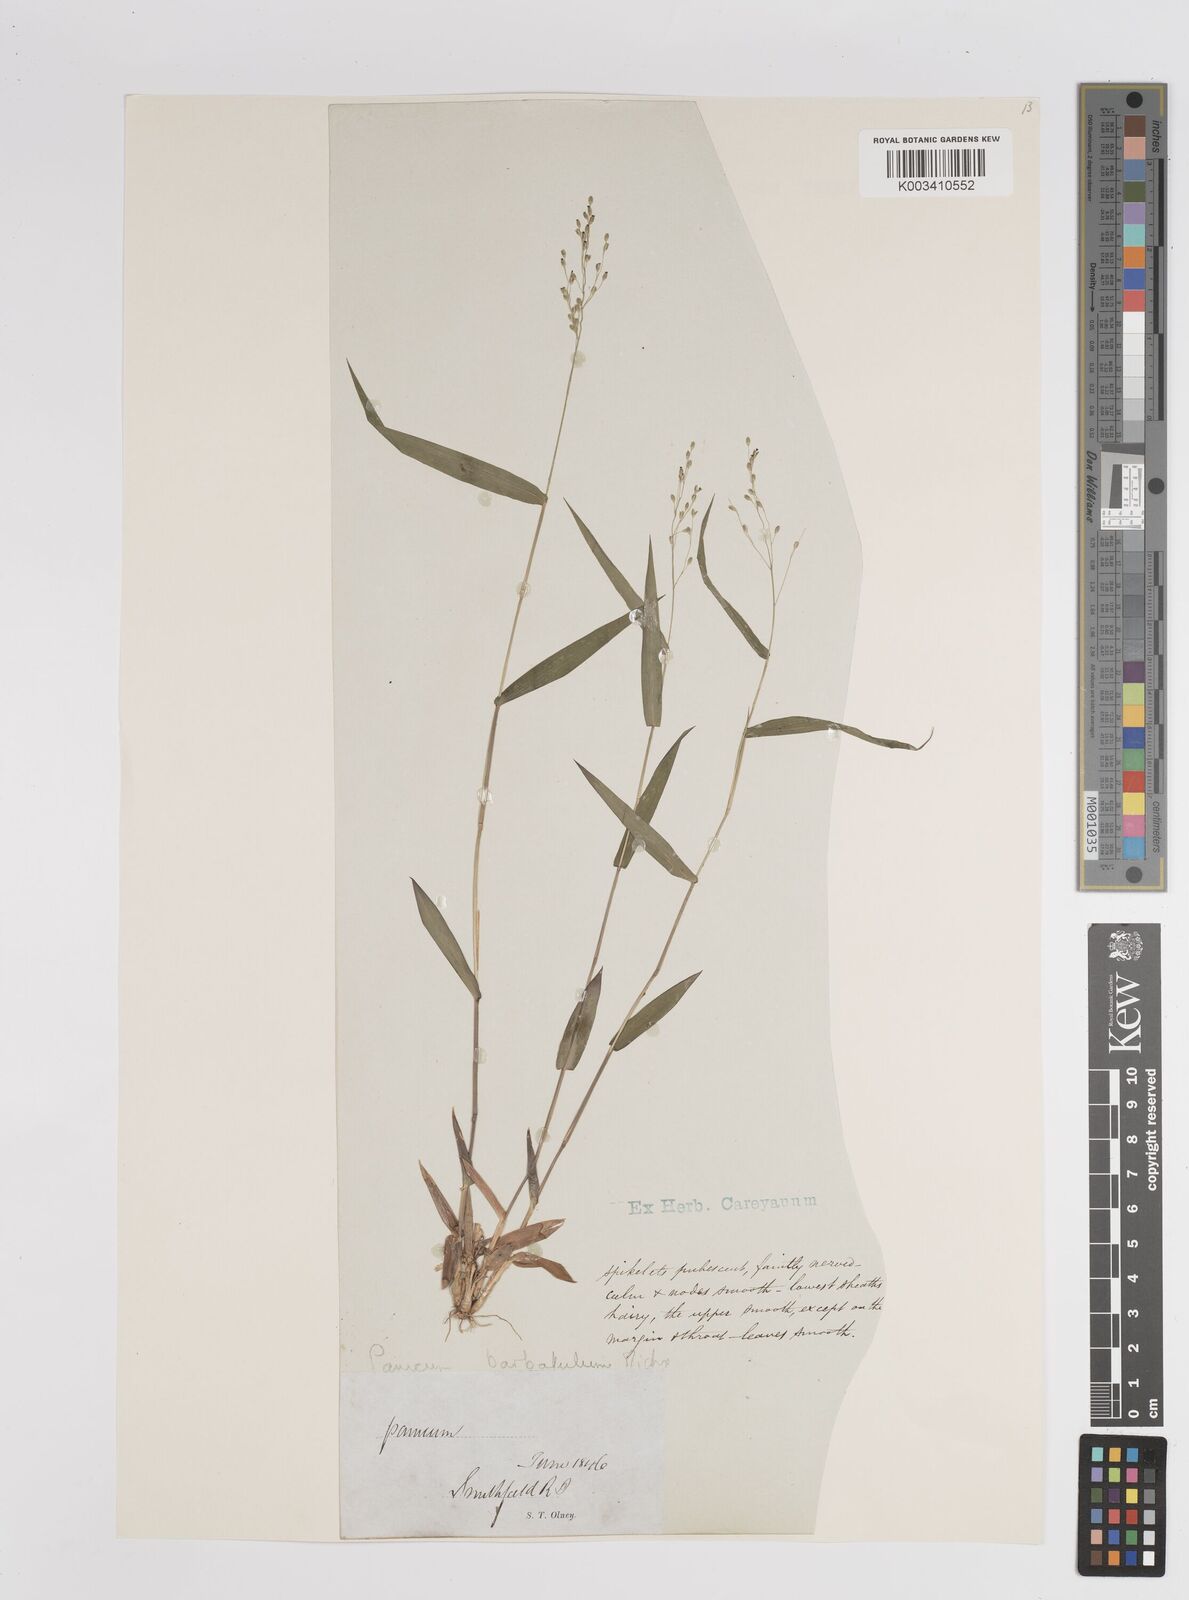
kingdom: Plantae
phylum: Tracheophyta
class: Liliopsida
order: Poales
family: Poaceae
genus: Dichanthelium
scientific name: Dichanthelium dichotomum
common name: Cypress panicgrass
